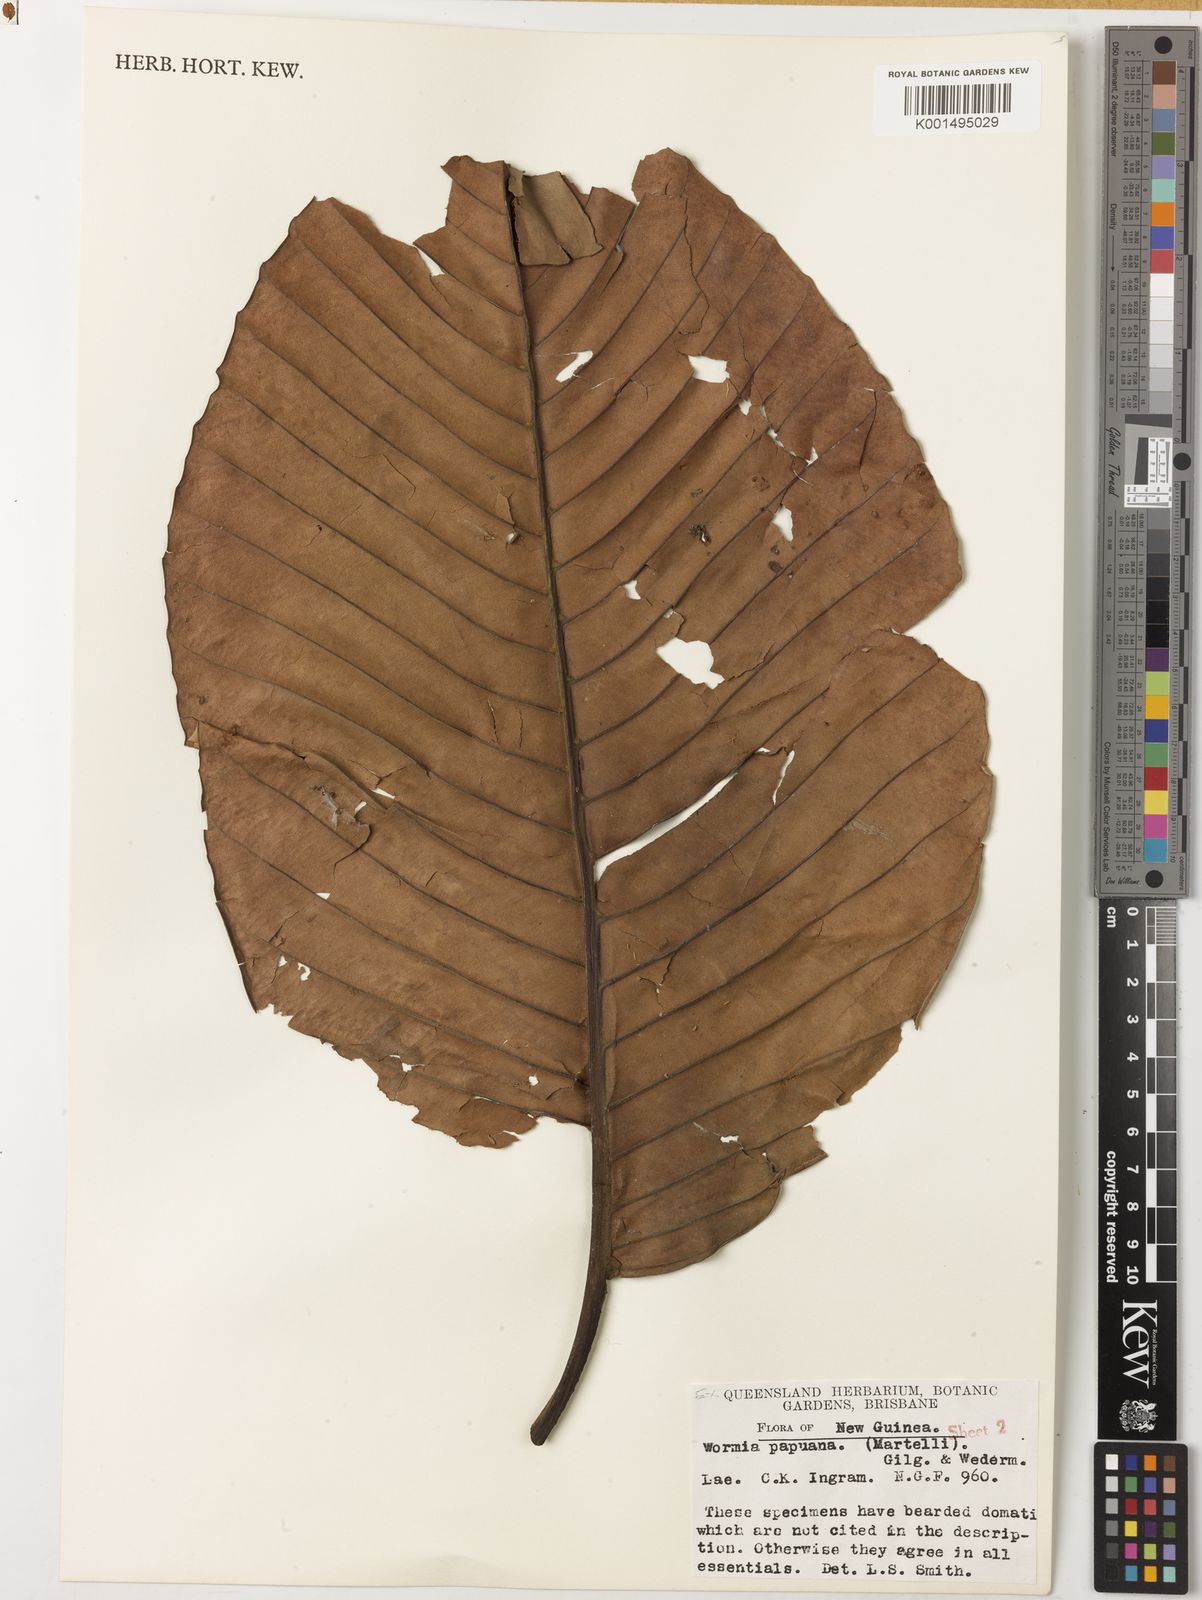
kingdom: Plantae
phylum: Tracheophyta
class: Magnoliopsida
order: Dilleniales
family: Dilleniaceae
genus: Dillenia
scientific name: Dillenia papuana
